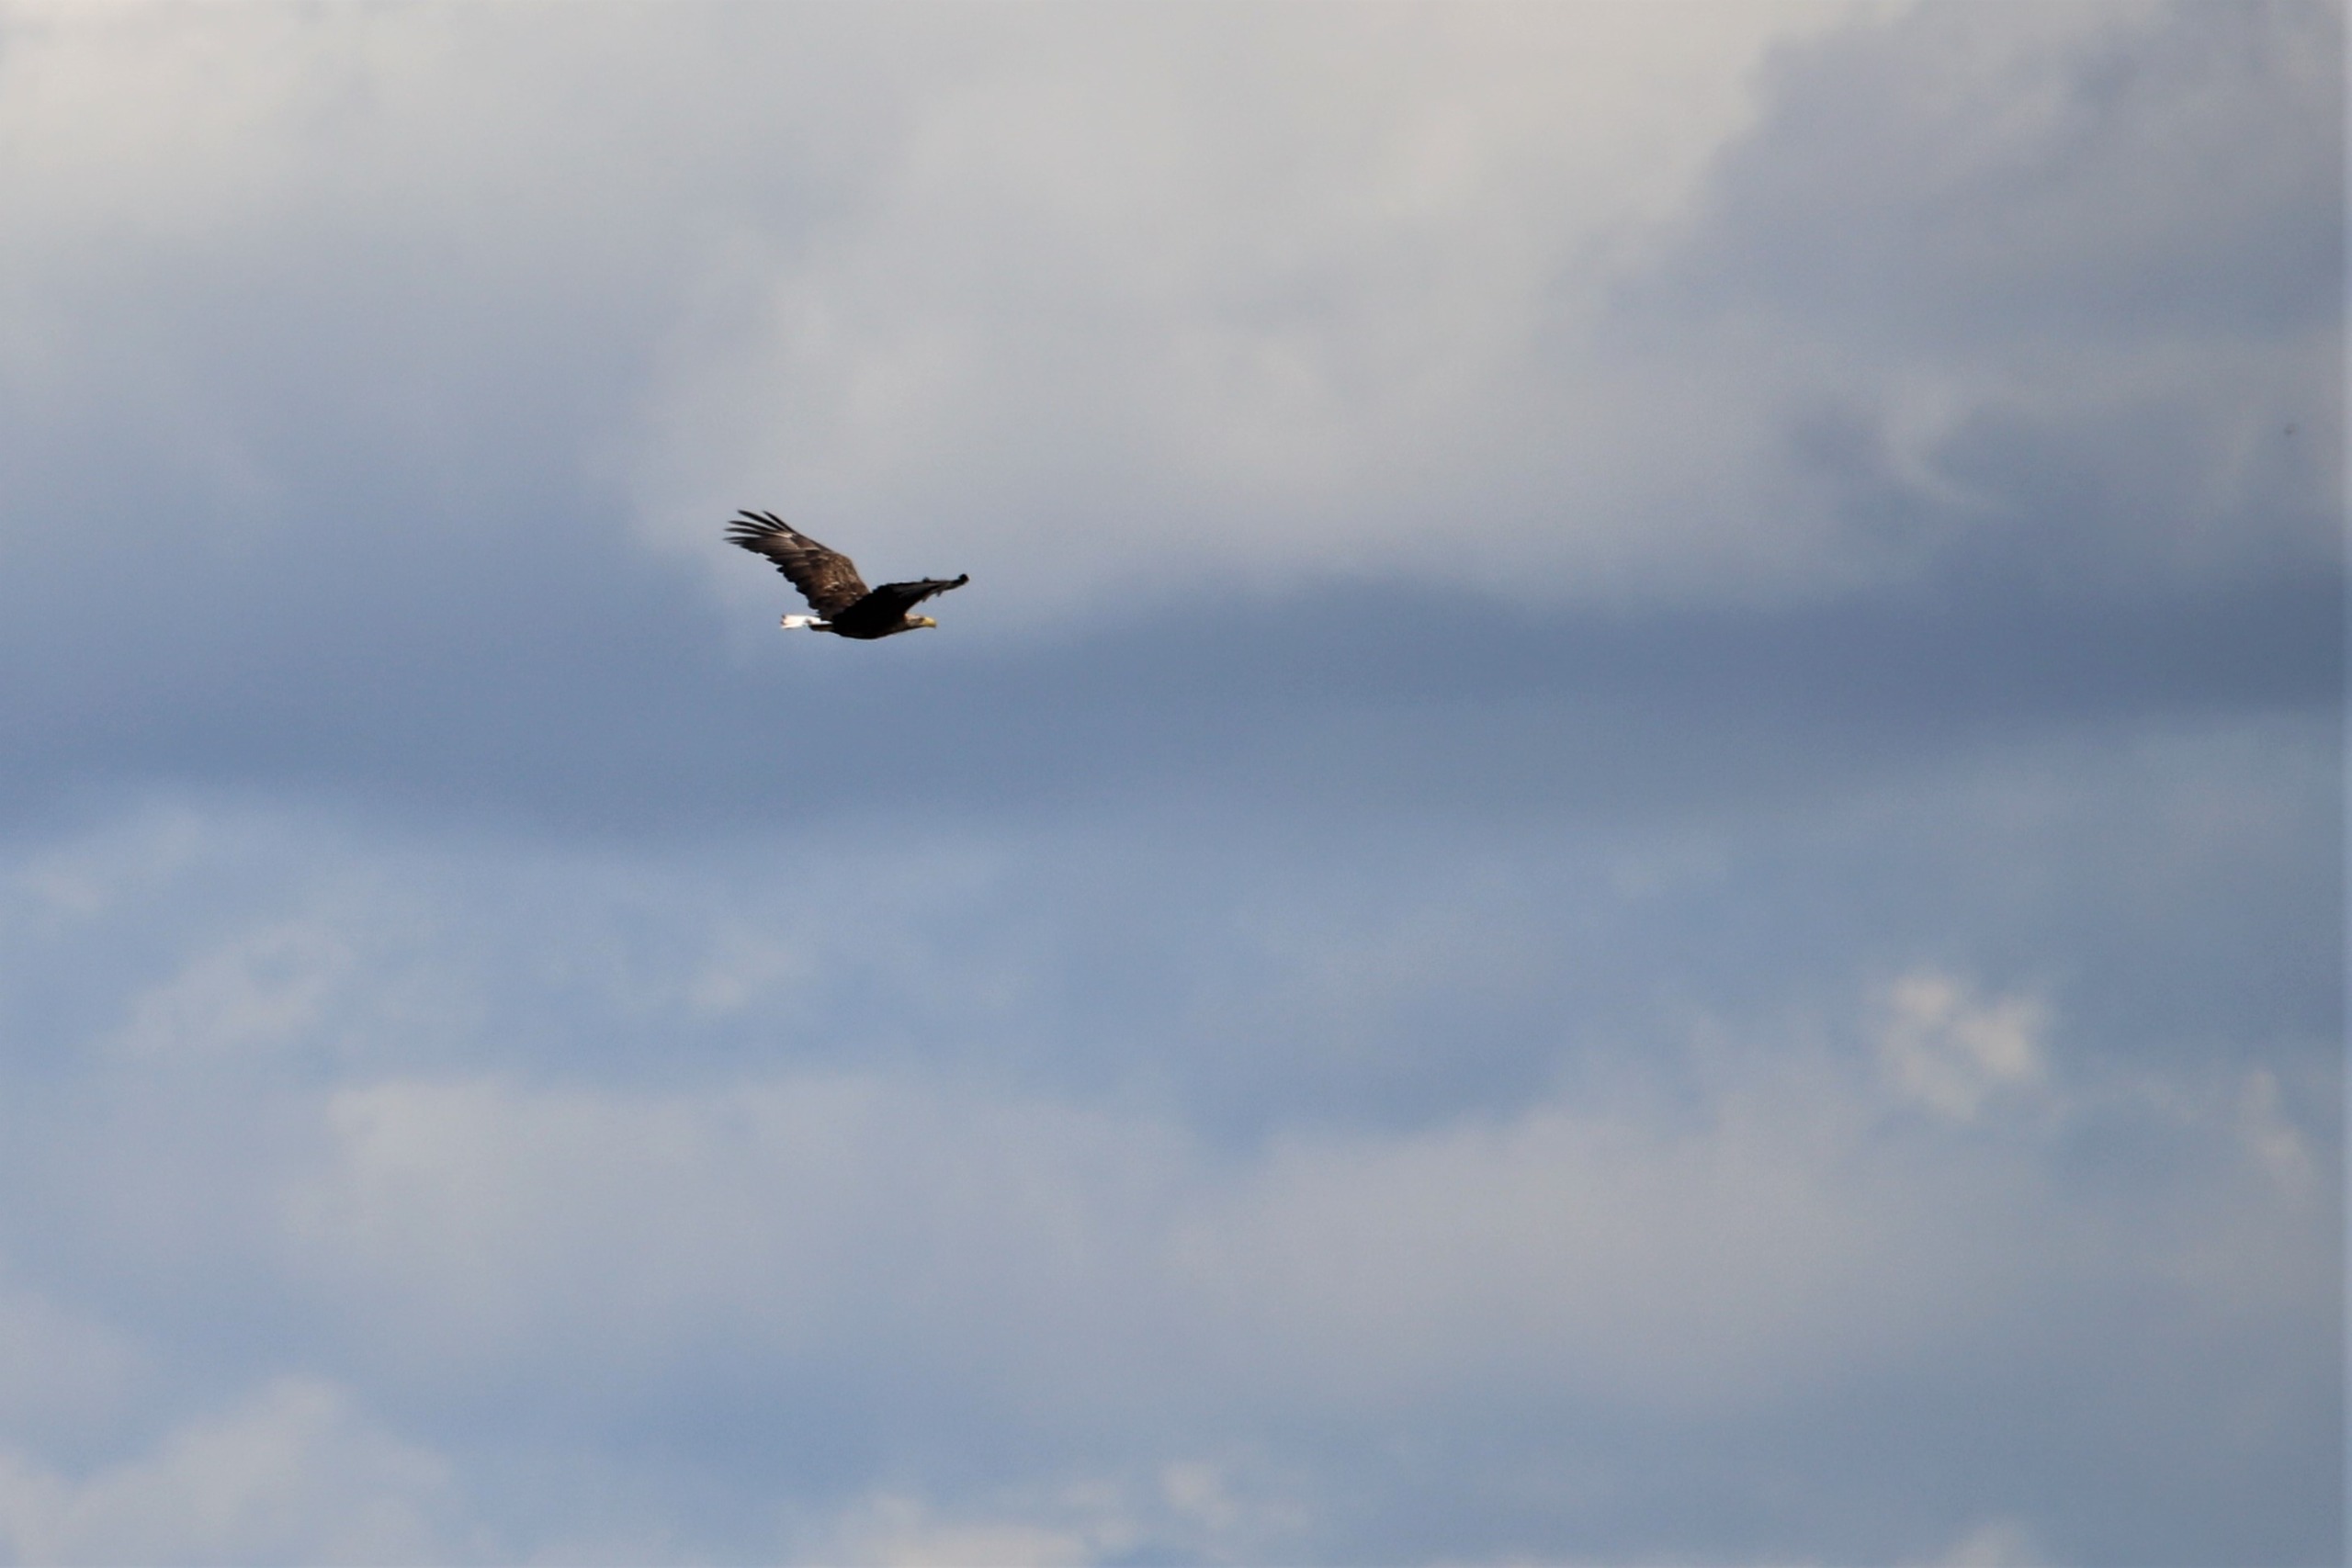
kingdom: Animalia
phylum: Chordata
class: Aves
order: Accipitriformes
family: Accipitridae
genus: Haliaeetus
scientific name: Haliaeetus albicilla
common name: Havørn
